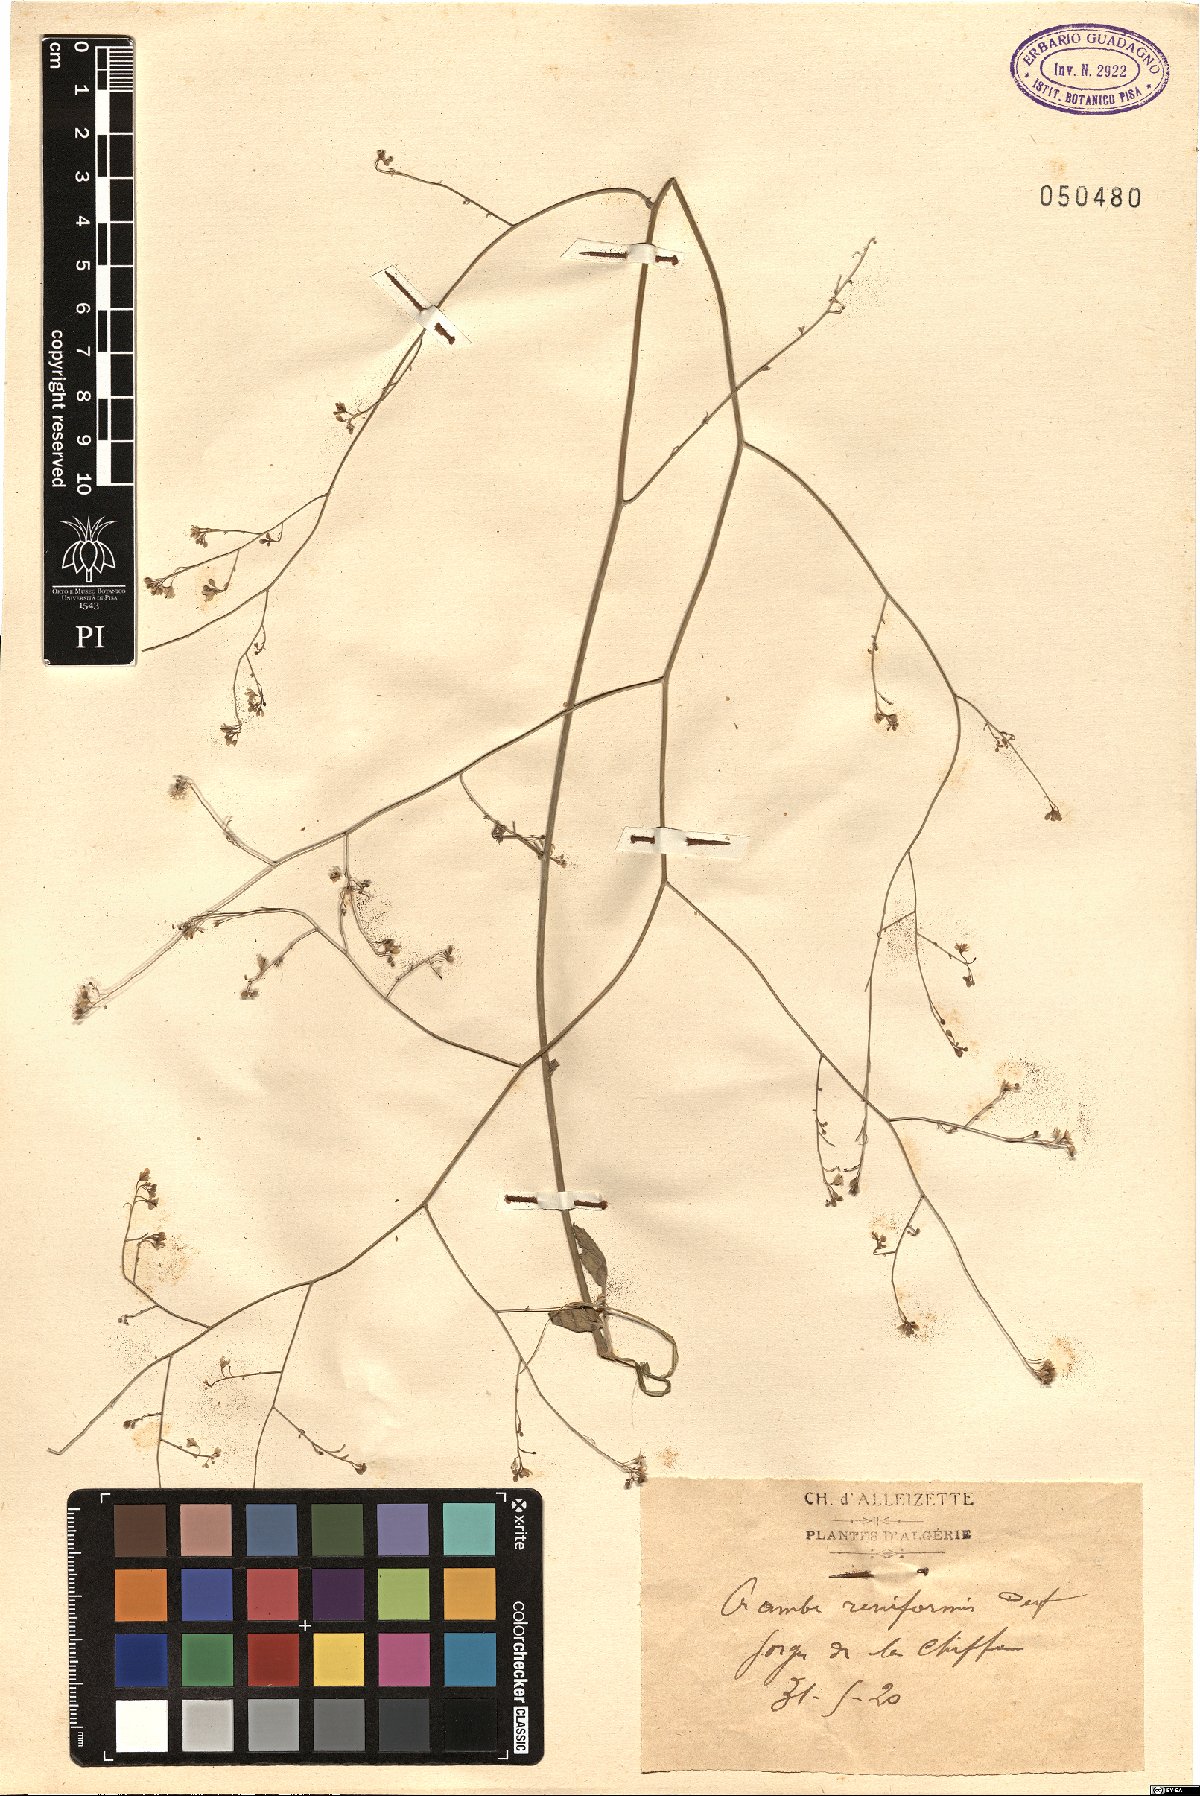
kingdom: Plantae
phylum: Tracheophyta
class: Magnoliopsida
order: Brassicales
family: Brassicaceae
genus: Crambe
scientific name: Crambe filiformis
